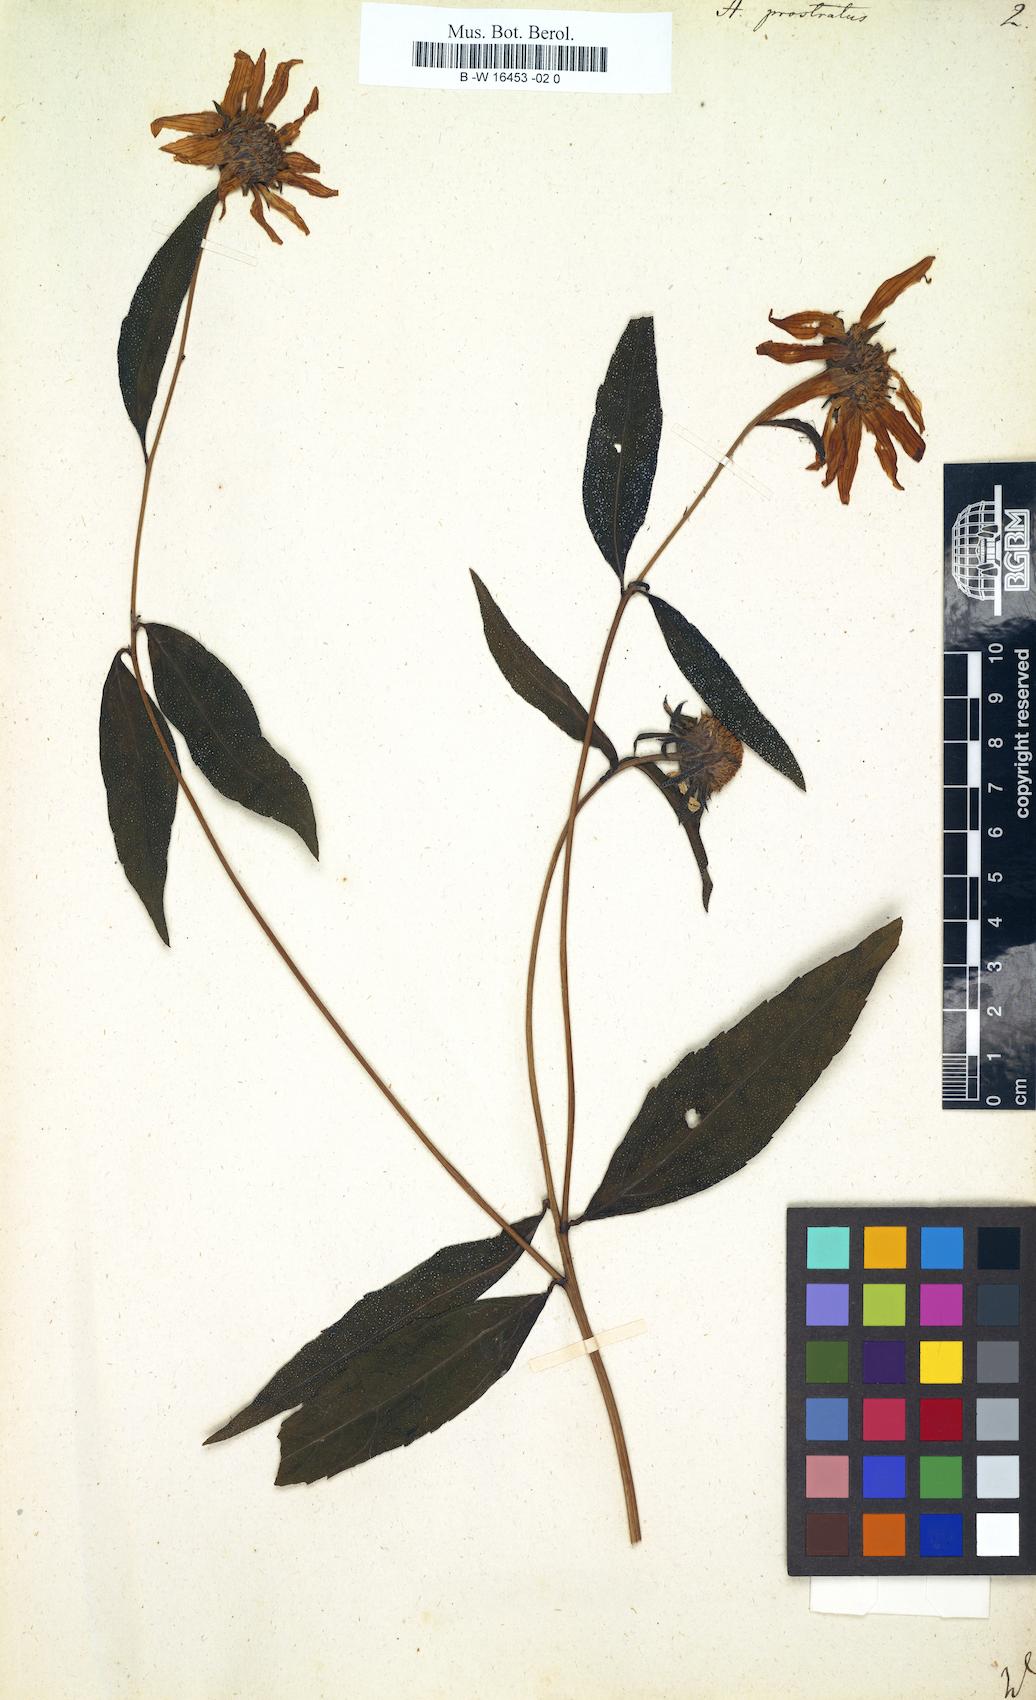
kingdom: Plantae
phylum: Tracheophyta
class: Magnoliopsida
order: Asterales
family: Asteraceae
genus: Helianthus
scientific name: Helianthus decapetalus
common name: Thin-leaved sunflower
